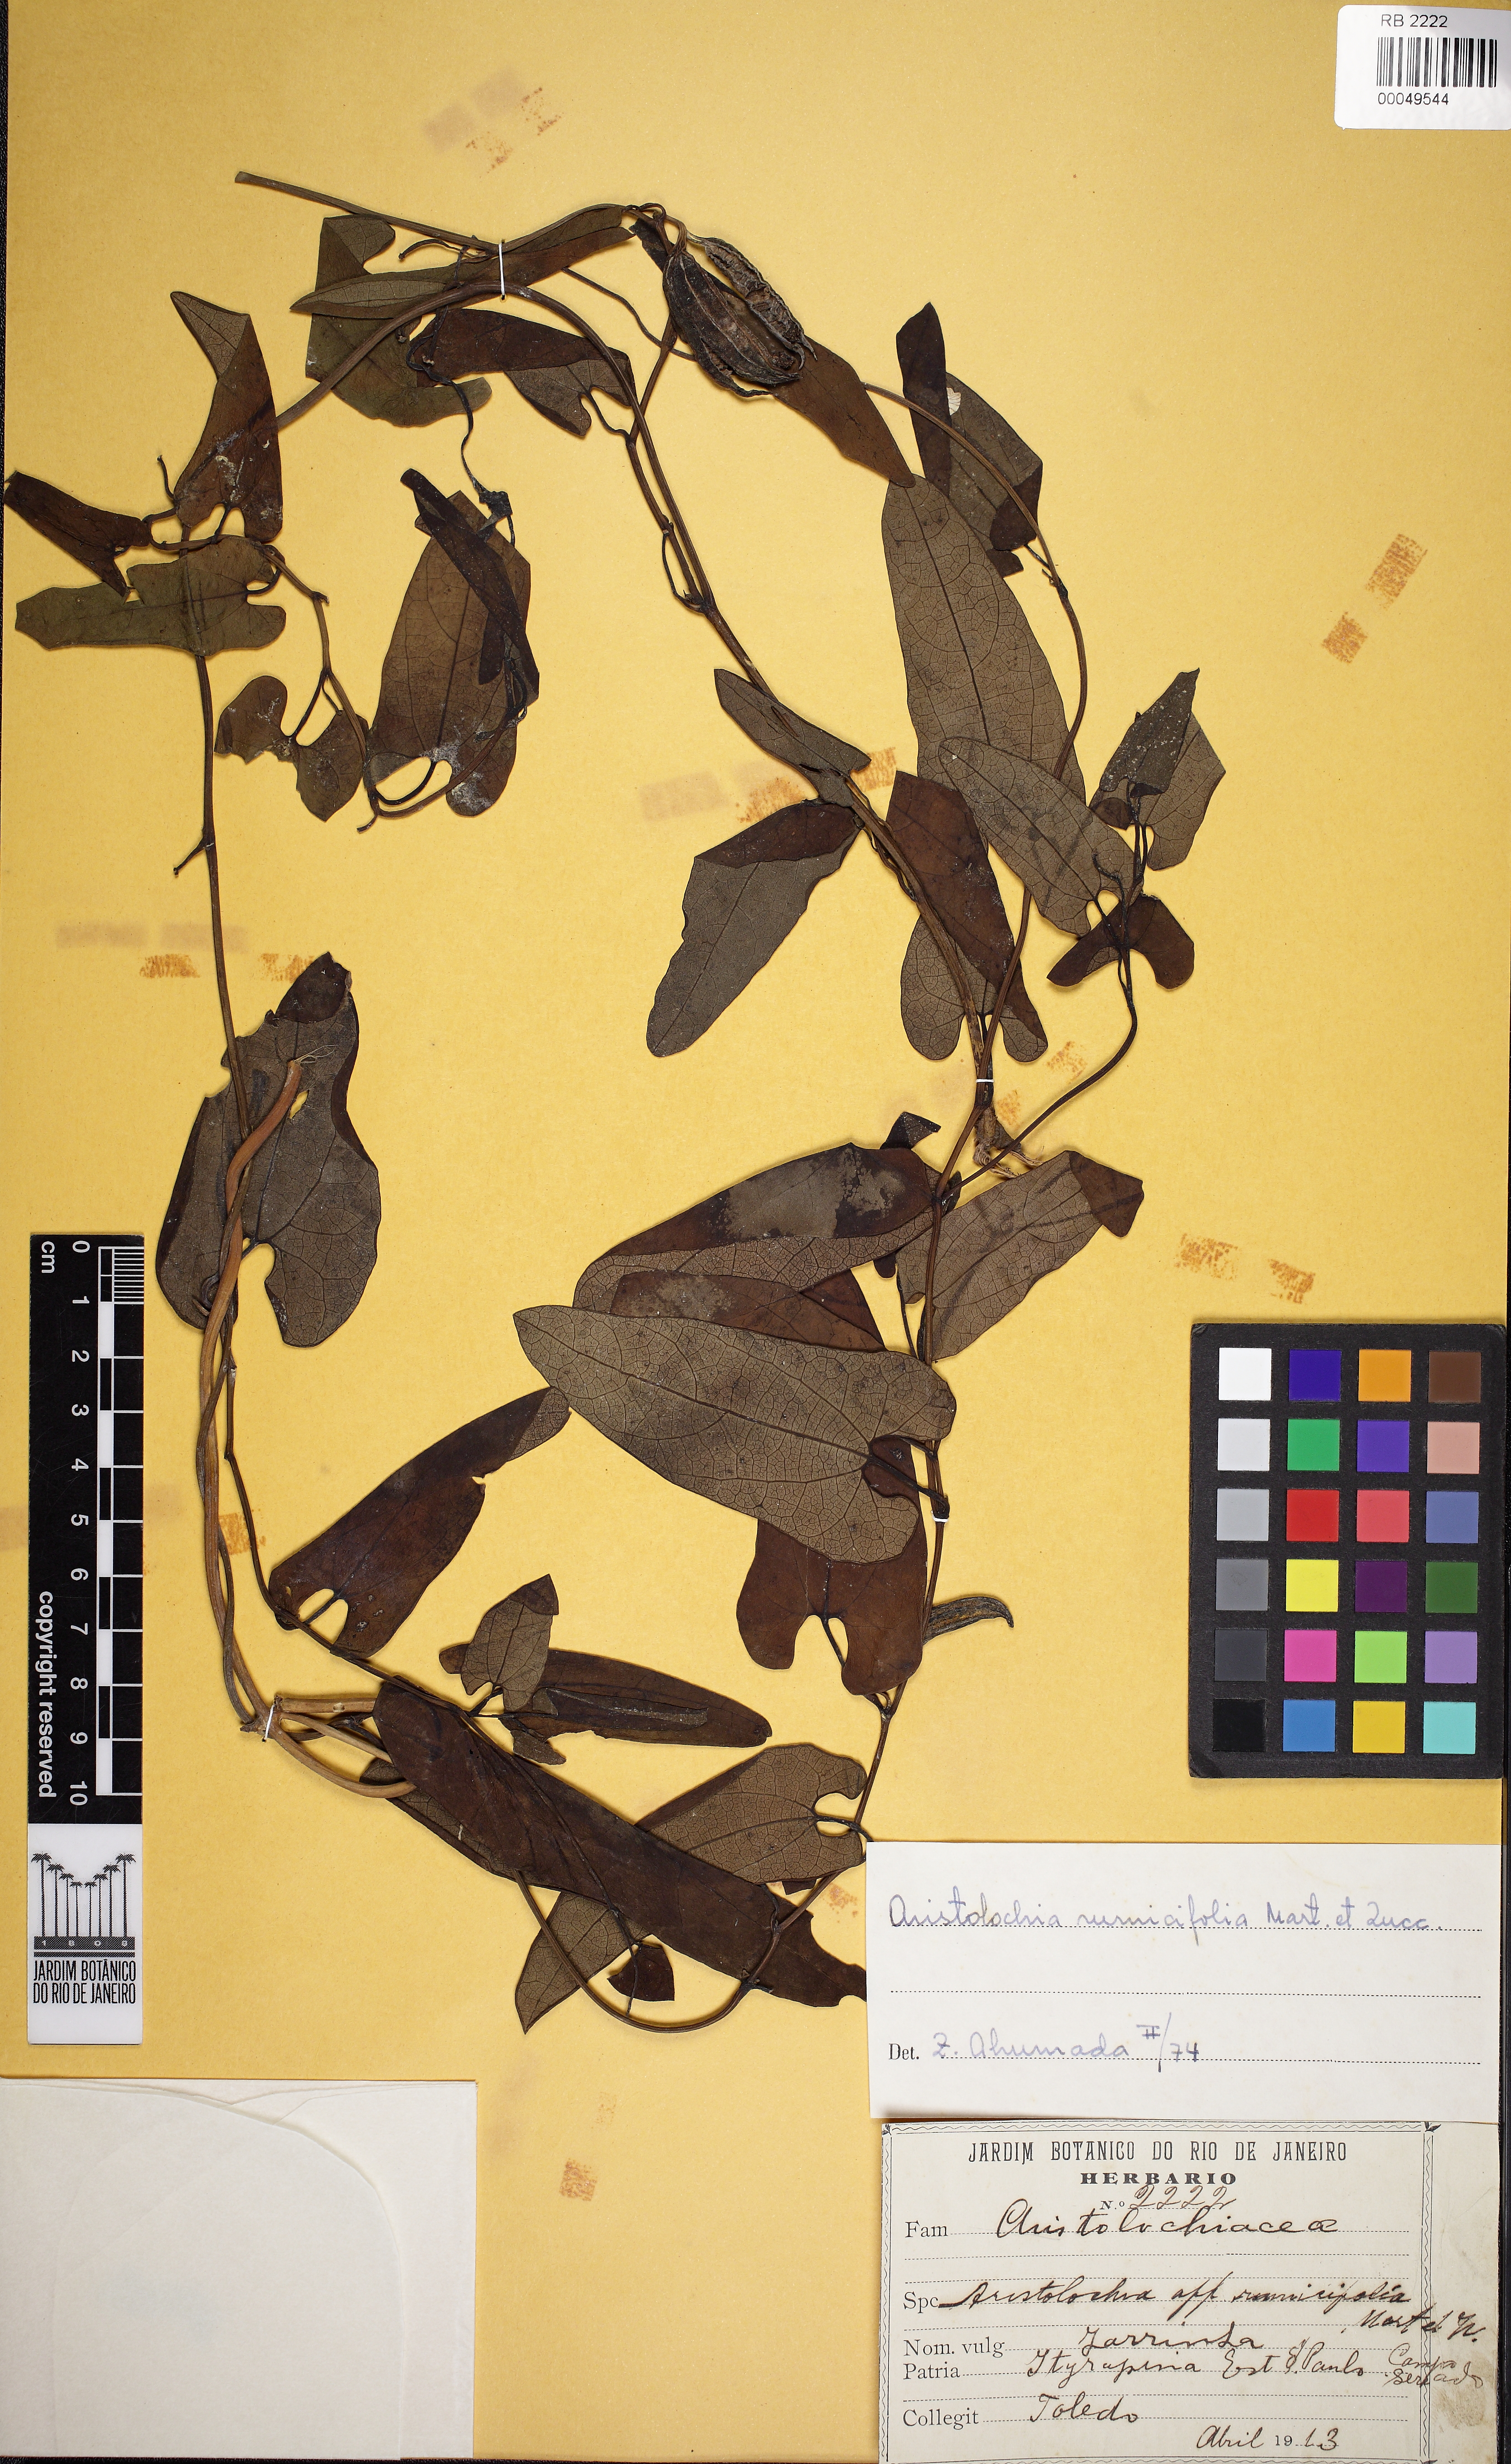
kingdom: Plantae
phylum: Tracheophyta
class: Magnoliopsida
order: Piperales
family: Aristolochiaceae
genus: Aristolochia
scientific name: Aristolochia rumicifolia
